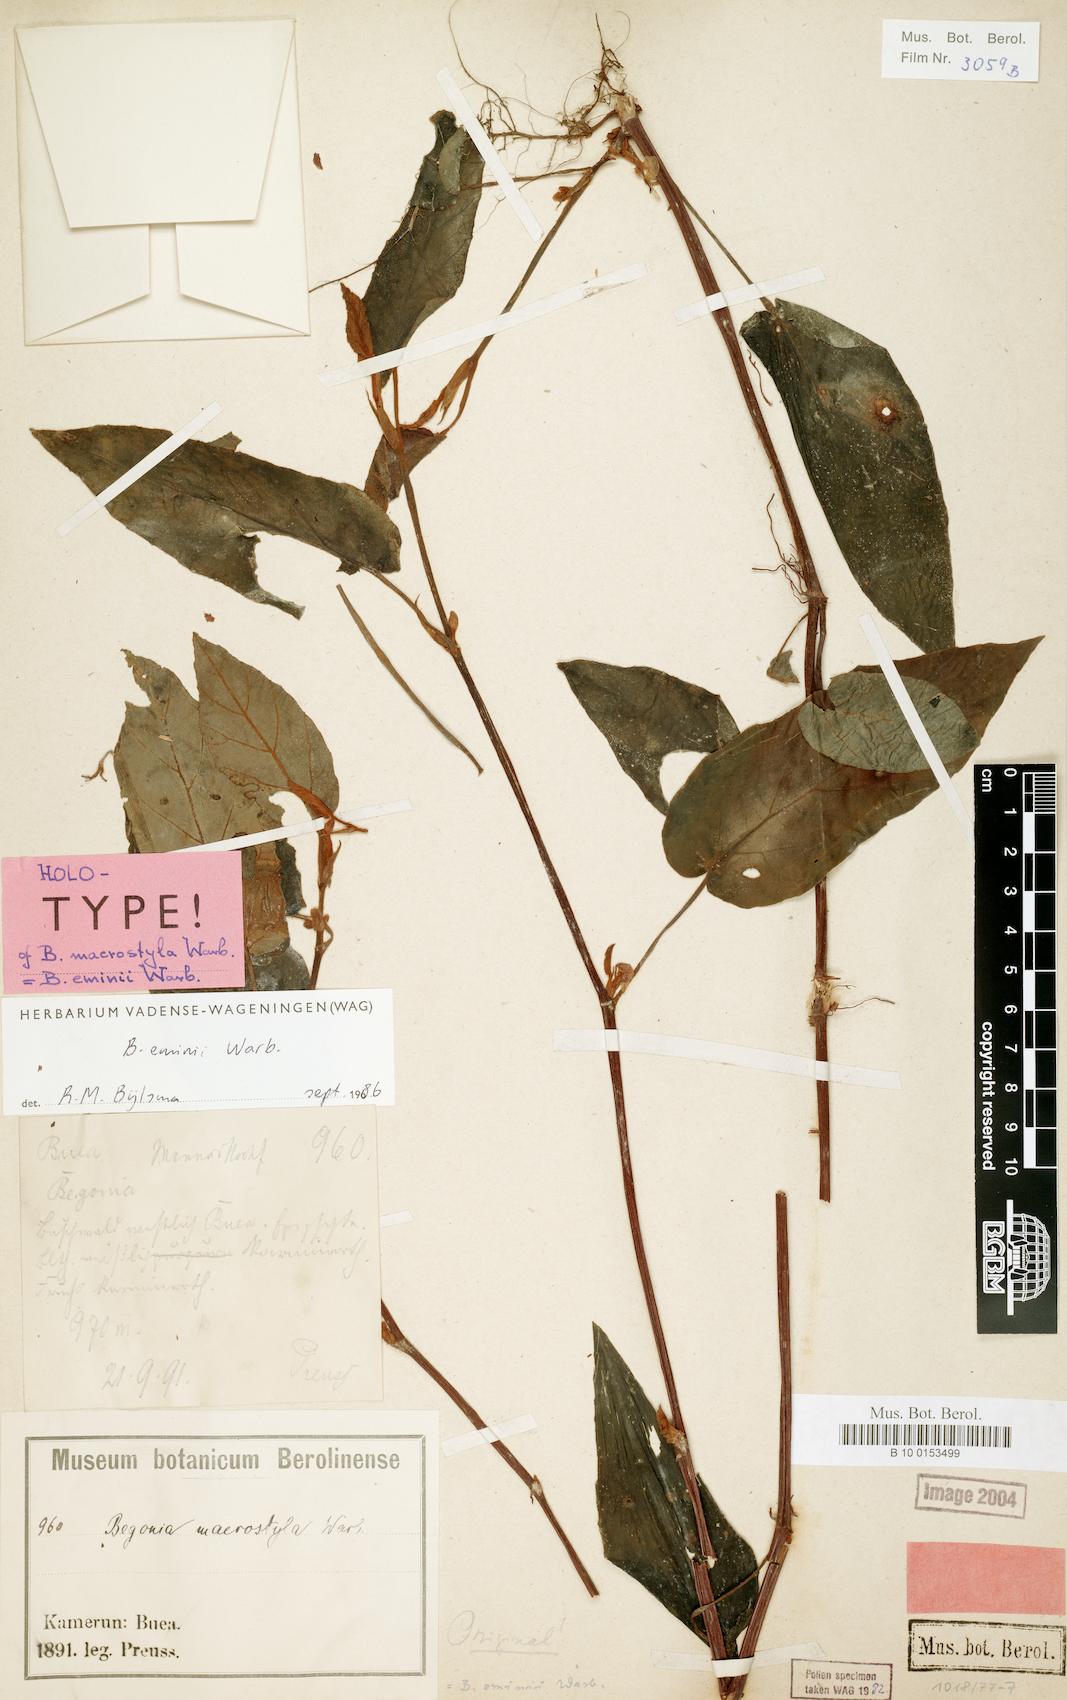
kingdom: Plantae
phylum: Tracheophyta
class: Magnoliopsida
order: Cucurbitales
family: Begoniaceae
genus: Begonia
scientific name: Begonia eminii
